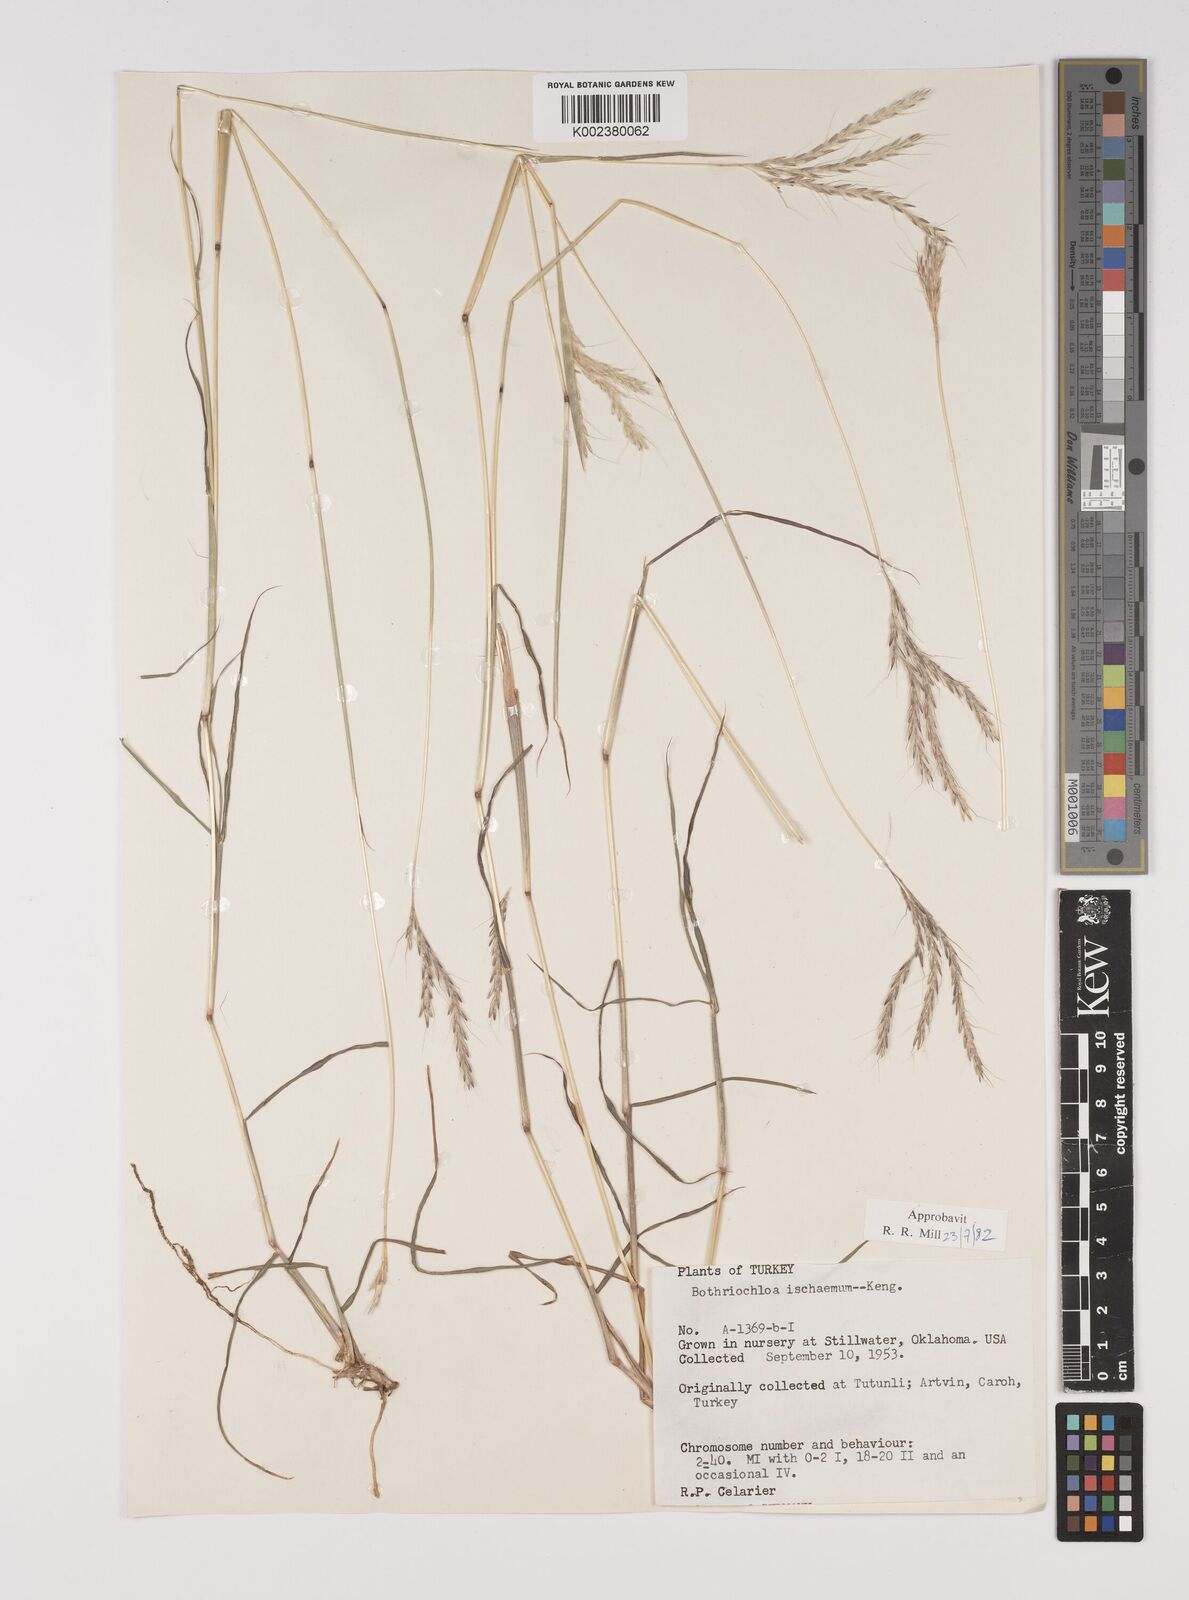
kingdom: Plantae
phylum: Tracheophyta
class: Liliopsida
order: Poales
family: Poaceae
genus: Bothriochloa
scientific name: Bothriochloa ischaemum
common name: Yellow bluestem
